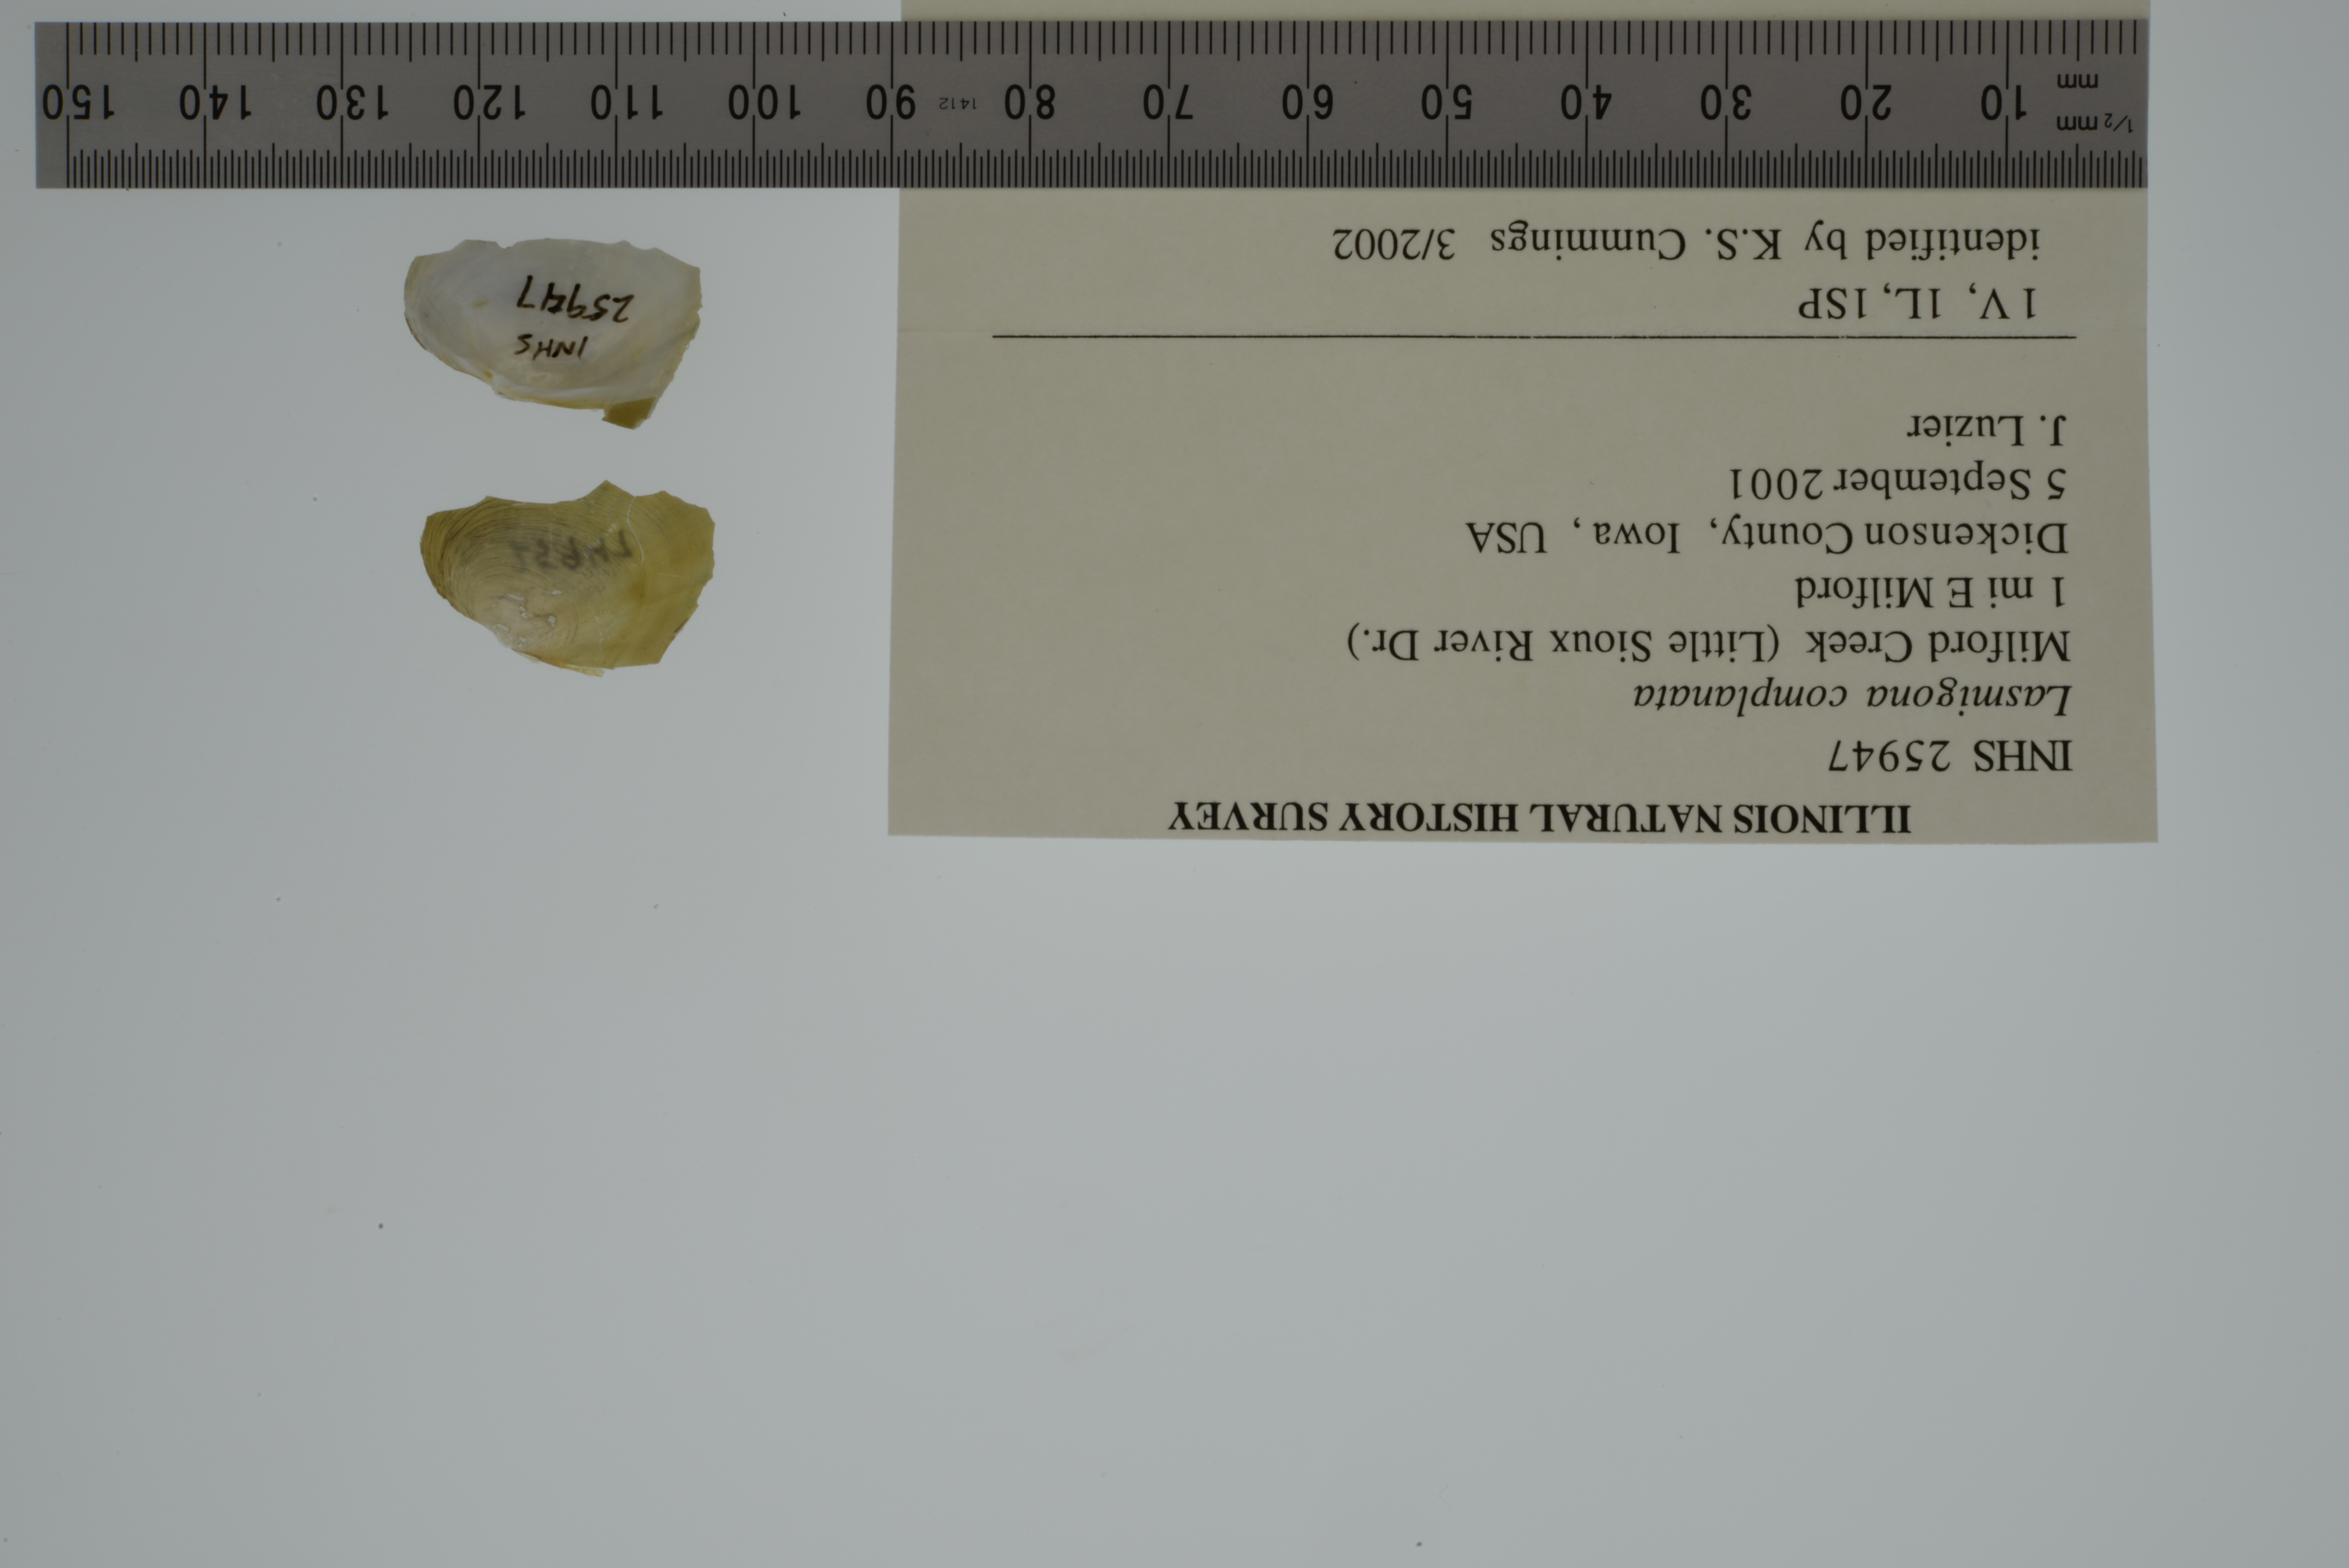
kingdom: Animalia
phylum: Mollusca
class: Bivalvia
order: Unionida
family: Unionidae
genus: Lasmigona
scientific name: Lasmigona complanata
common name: White heelsplitter
